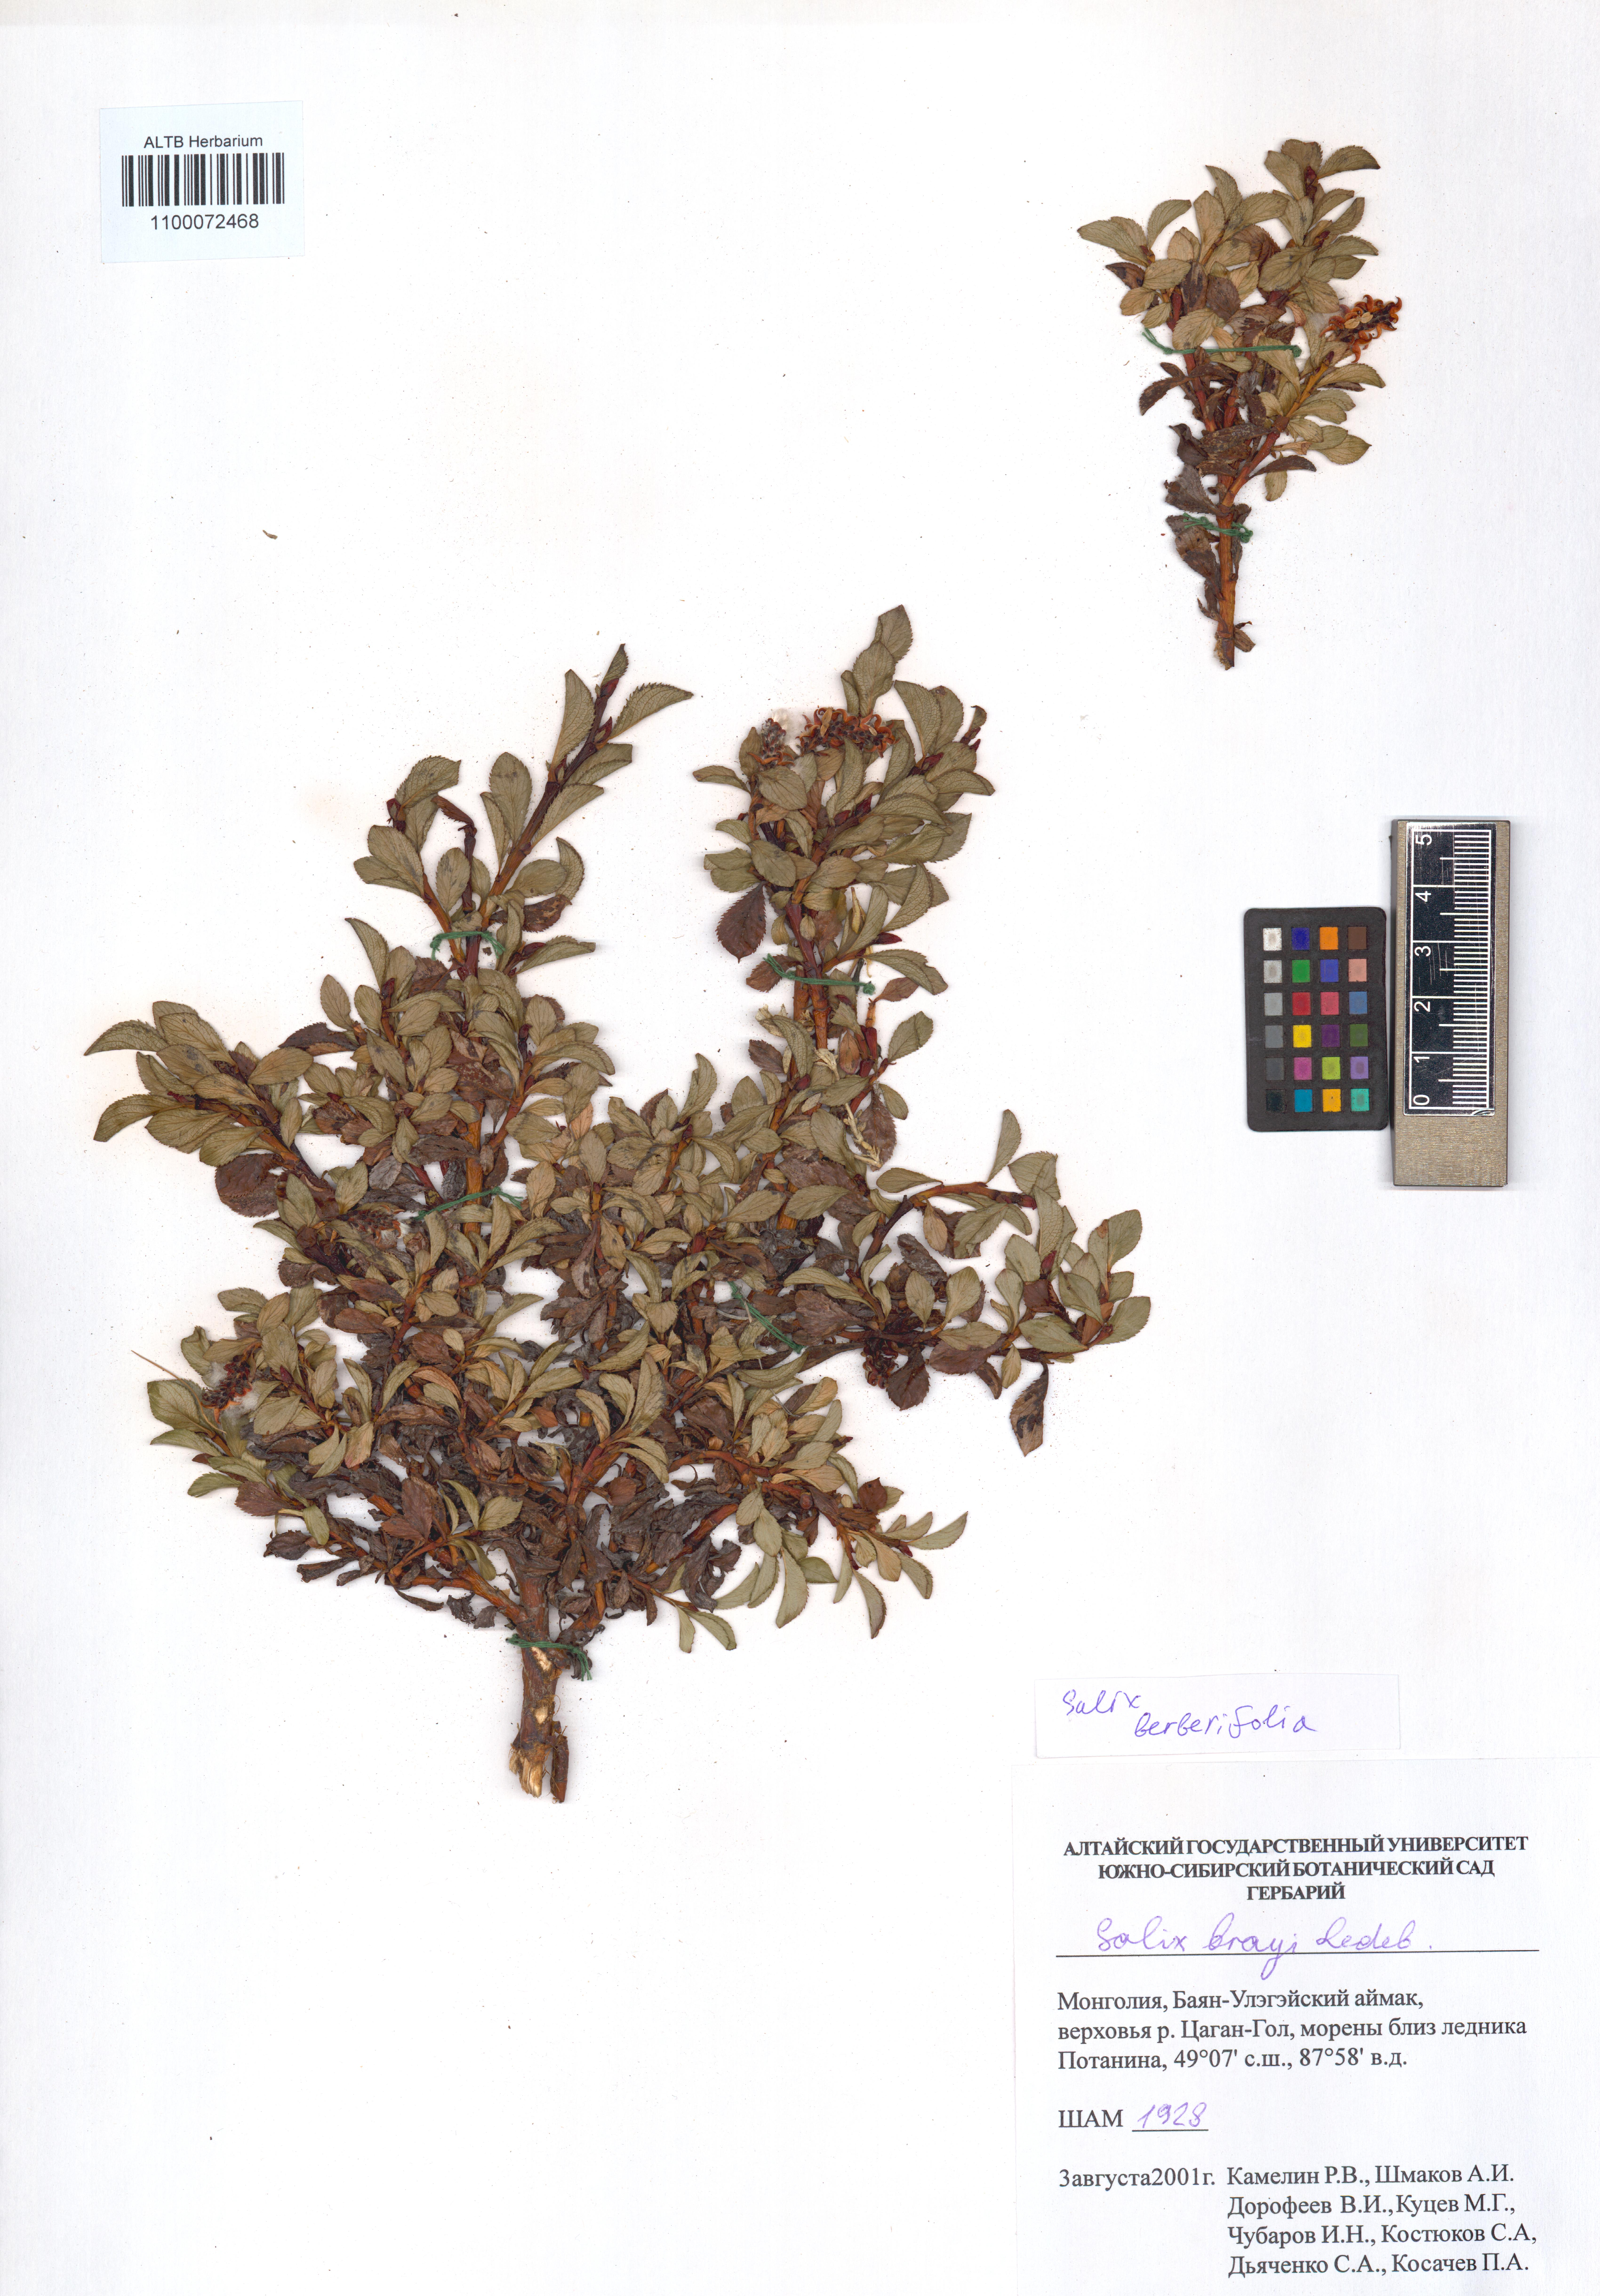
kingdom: Plantae
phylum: Tracheophyta
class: Magnoliopsida
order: Malpighiales
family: Salicaceae
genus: Salix
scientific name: Salix berberifolia
